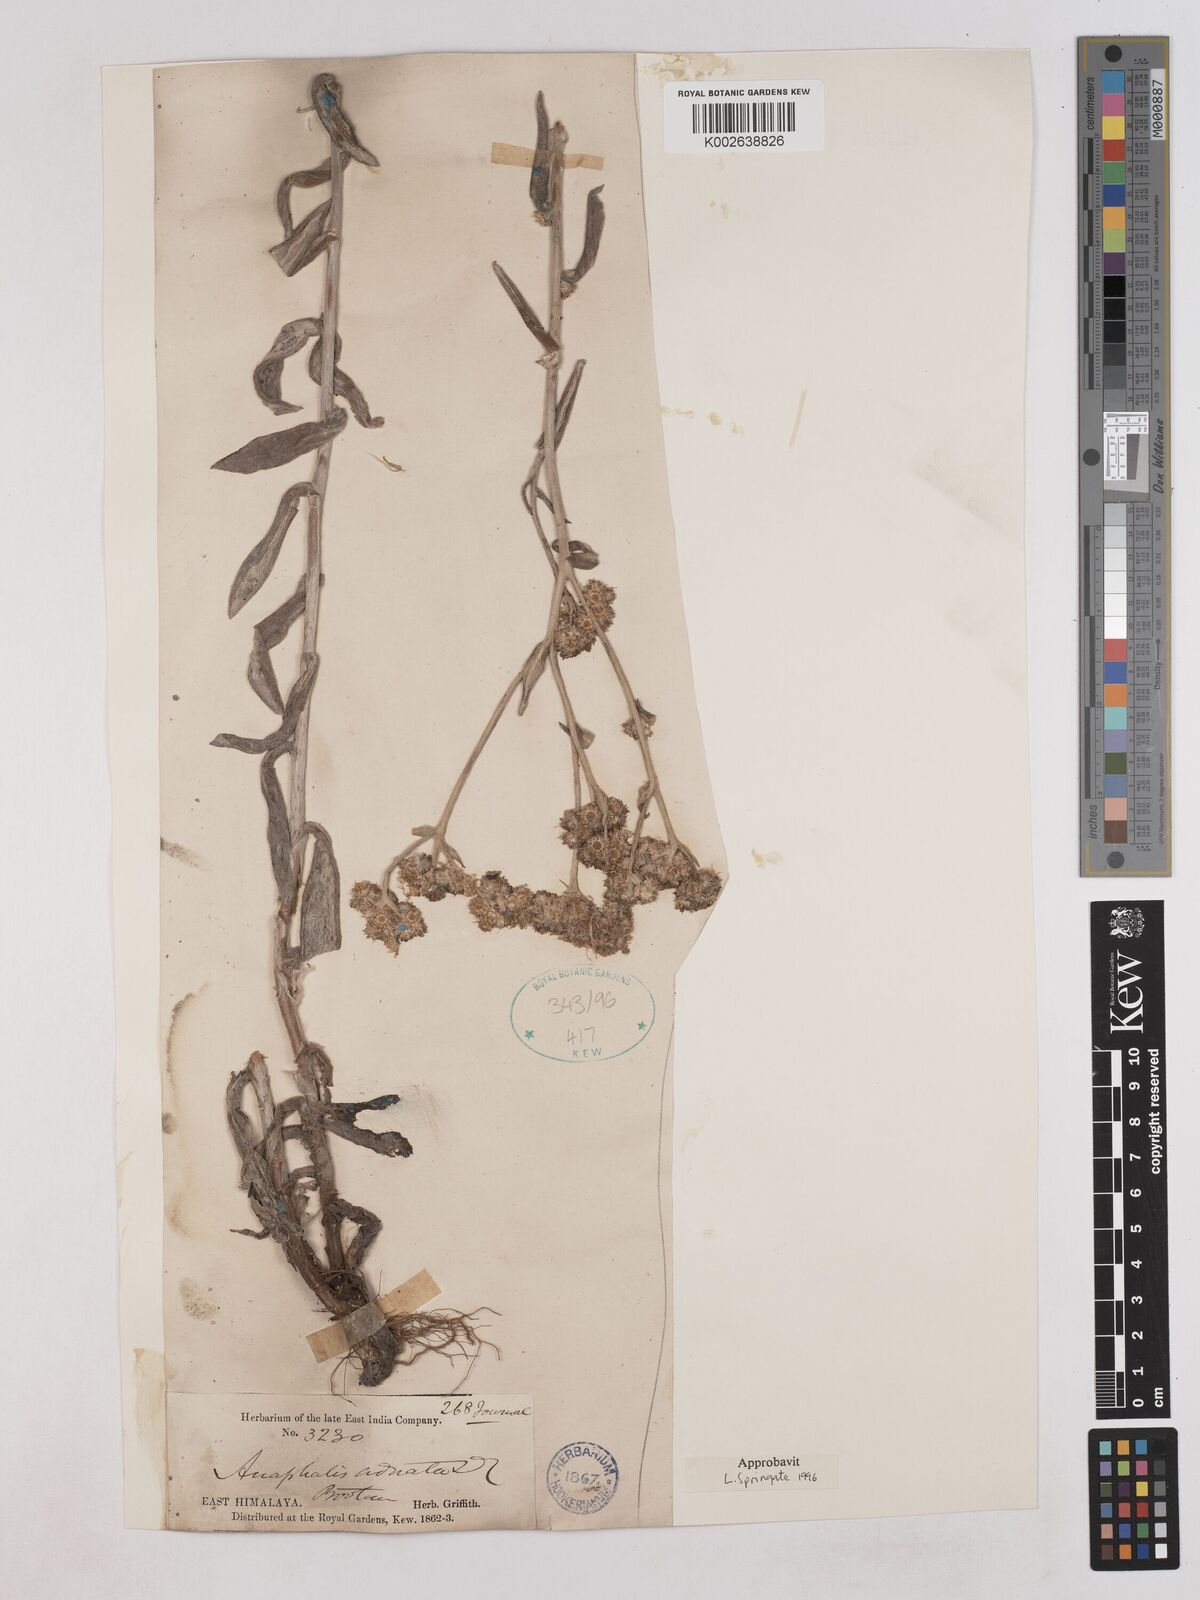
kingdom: Plantae
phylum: Tracheophyta
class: Magnoliopsida
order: Asterales
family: Asteraceae
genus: Pseudognaphalium
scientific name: Pseudognaphalium adnatum
